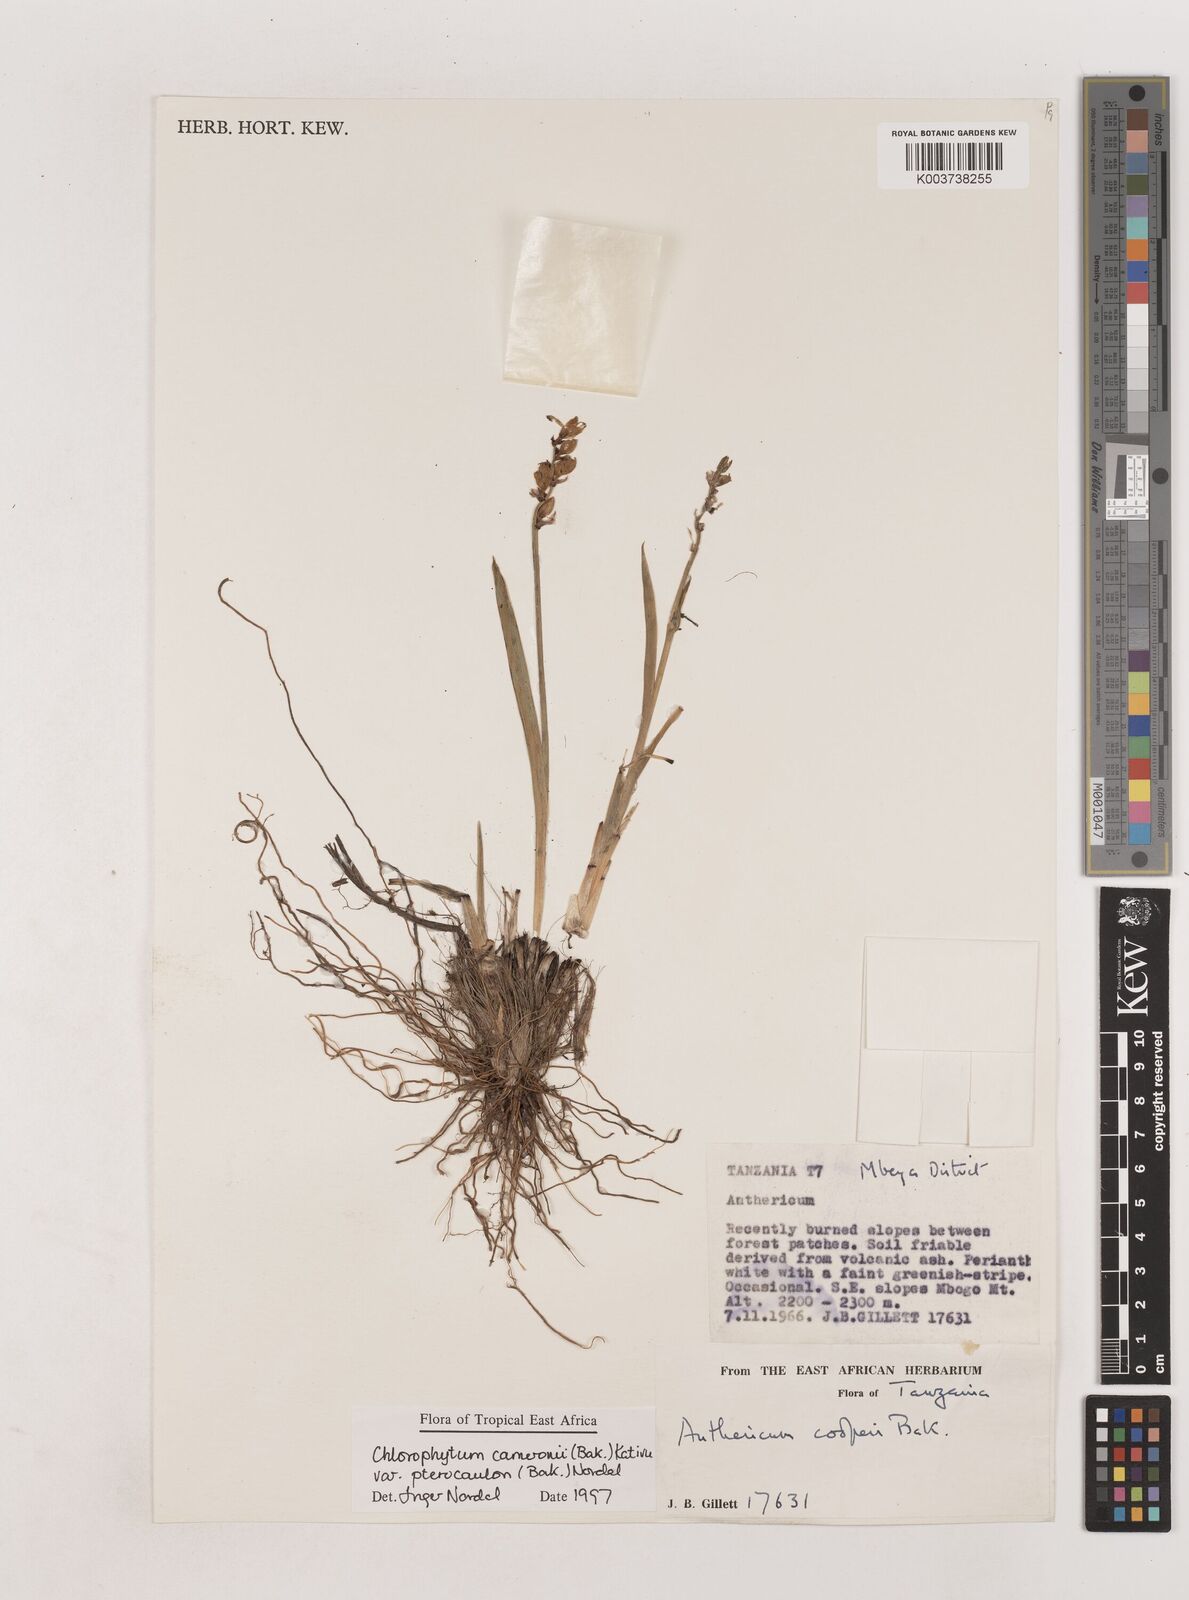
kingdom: Plantae
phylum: Tracheophyta
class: Liliopsida
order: Asparagales
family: Asparagaceae
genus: Chlorophytum
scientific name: Chlorophytum cameronii
